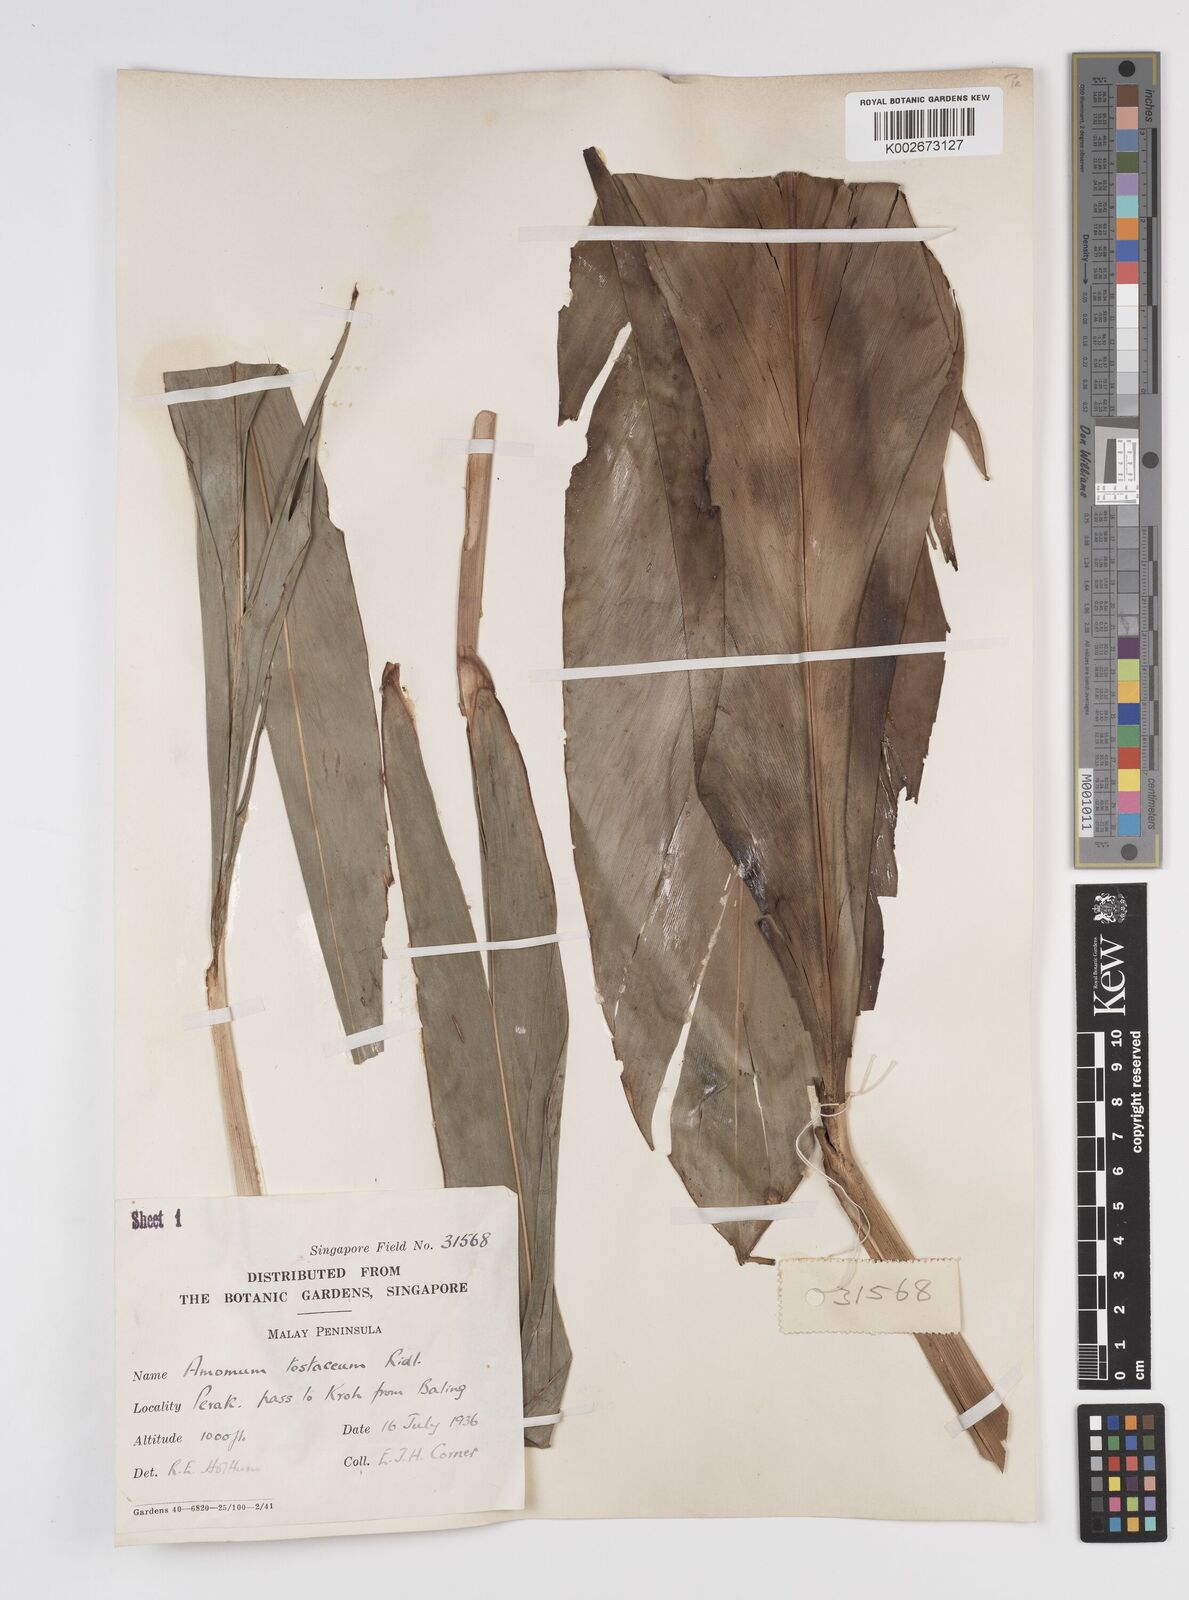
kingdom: Plantae
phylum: Tracheophyta
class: Liliopsida
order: Zingiberales
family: Zingiberaceae
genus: Wurfbainia
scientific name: Wurfbainia testacea
